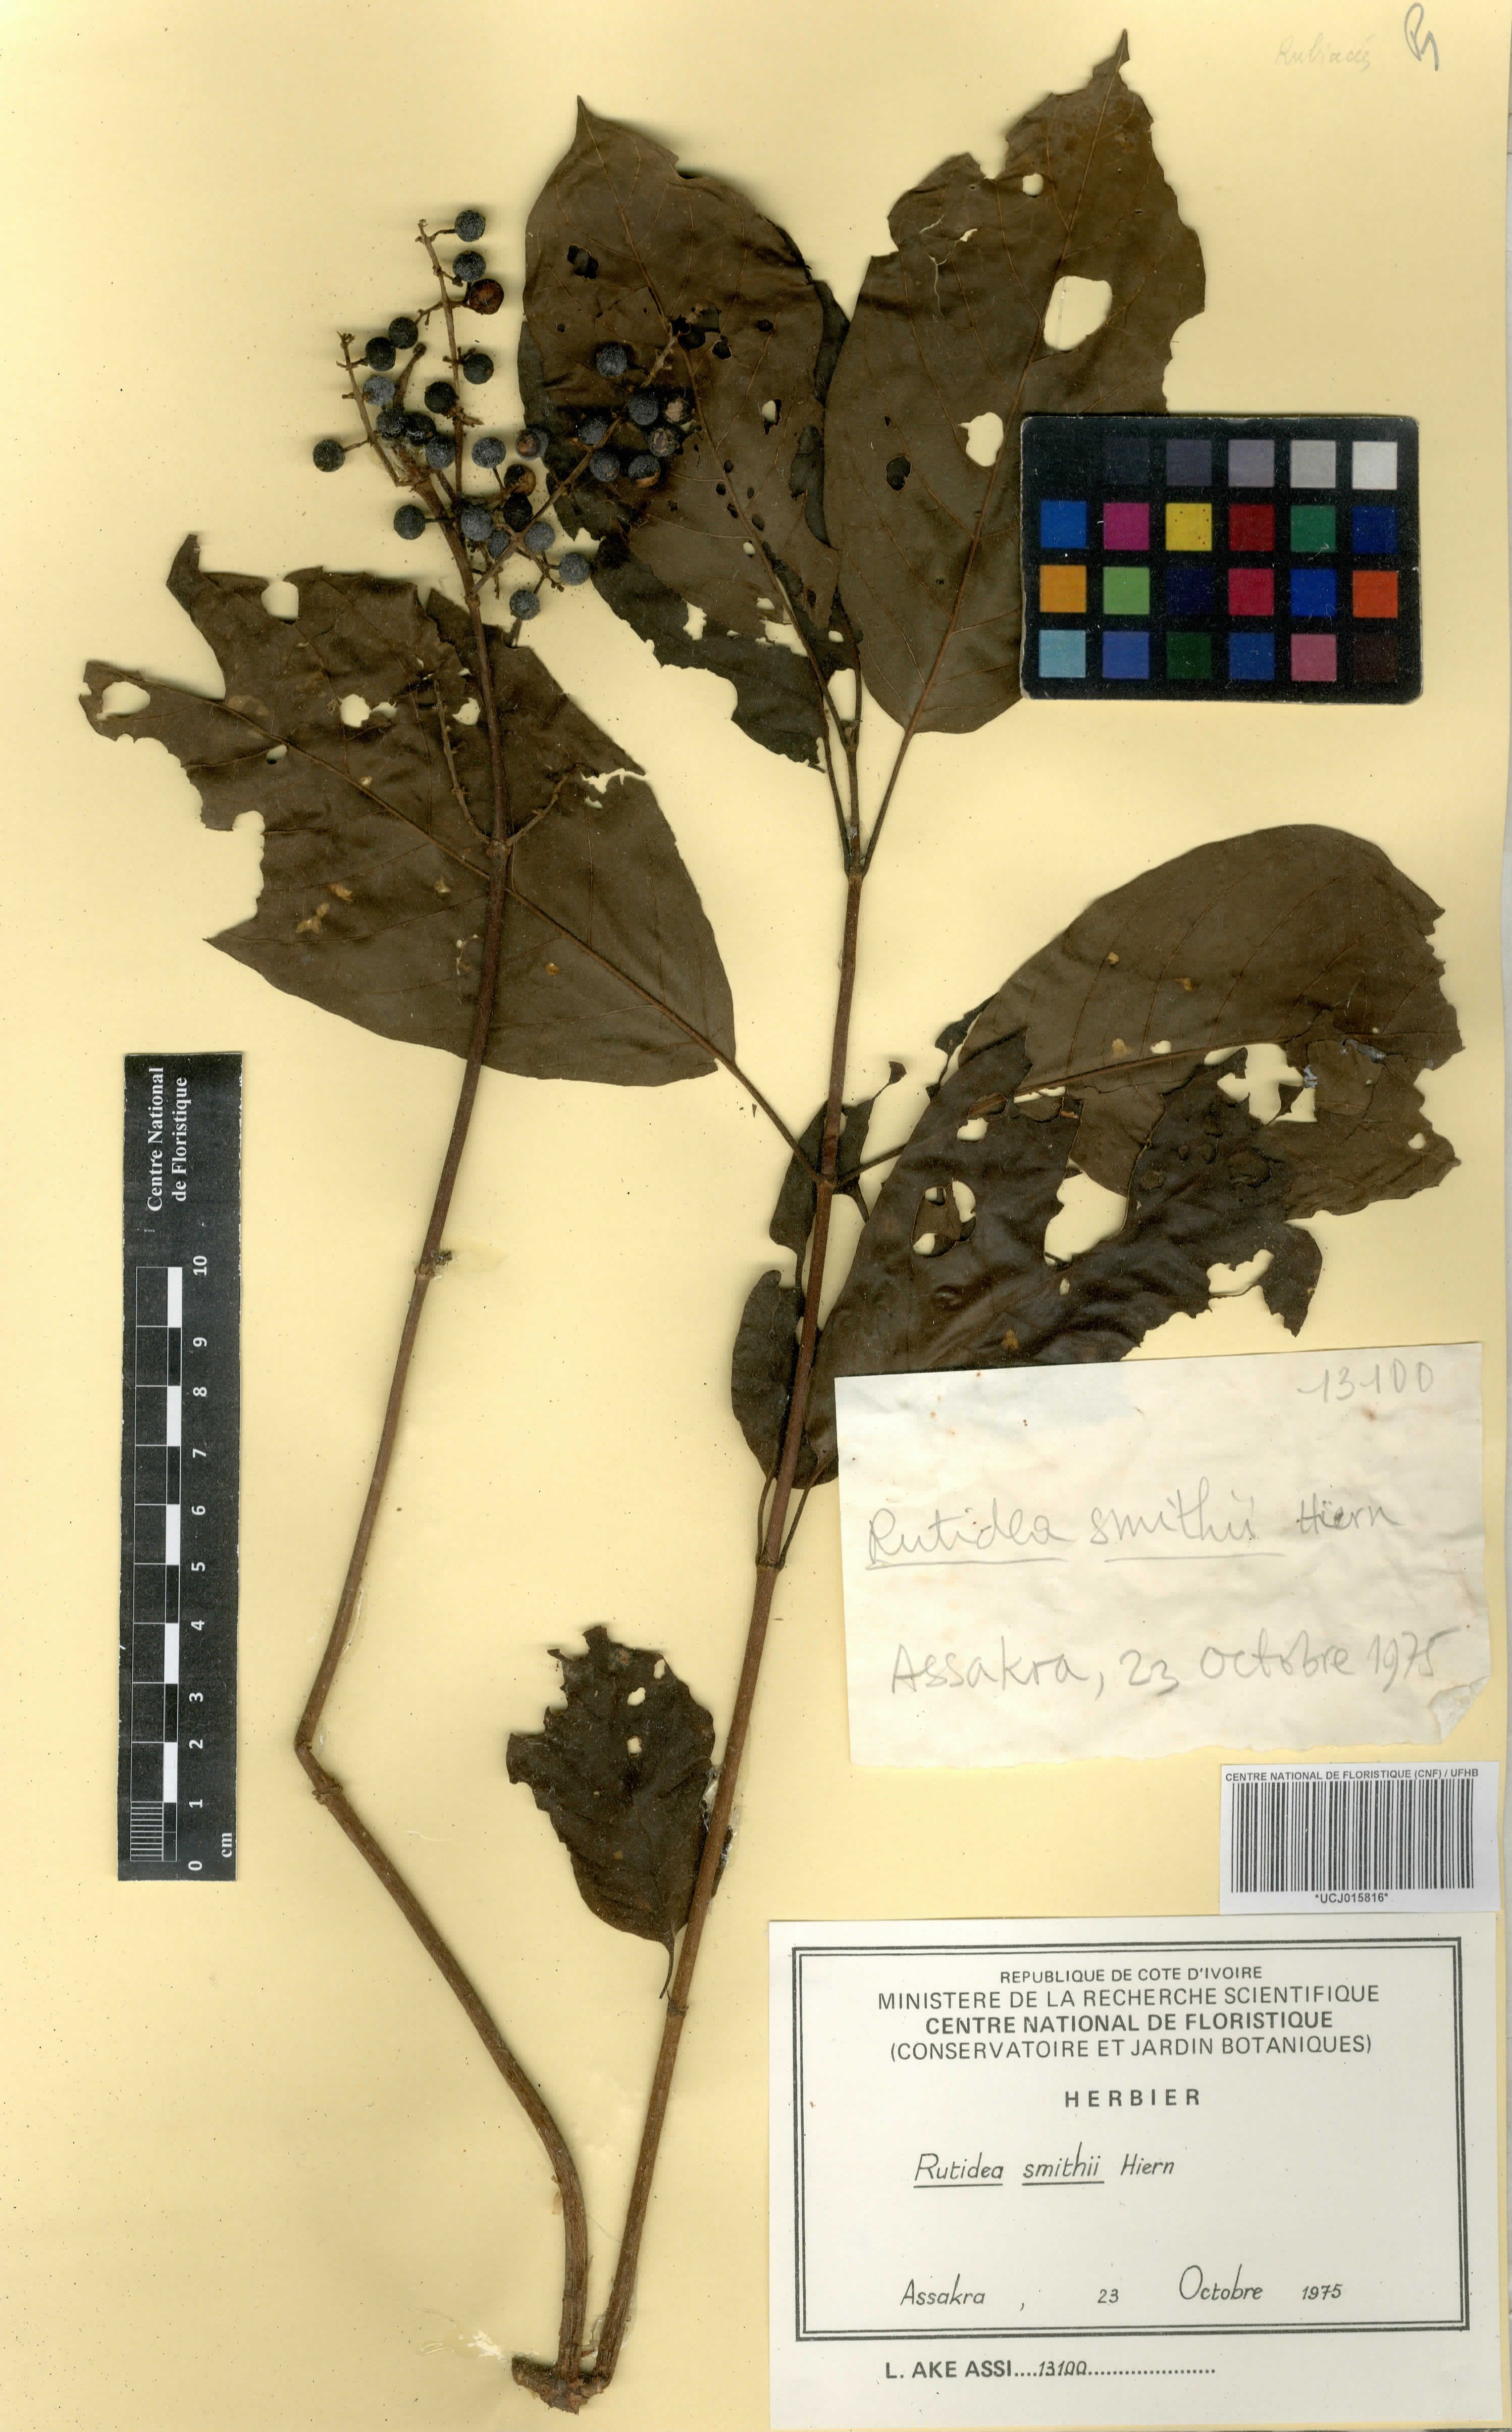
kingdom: Plantae
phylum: Tracheophyta
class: Magnoliopsida
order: Gentianales
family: Rubiaceae
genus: Rutidea
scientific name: Rutidea smithii
